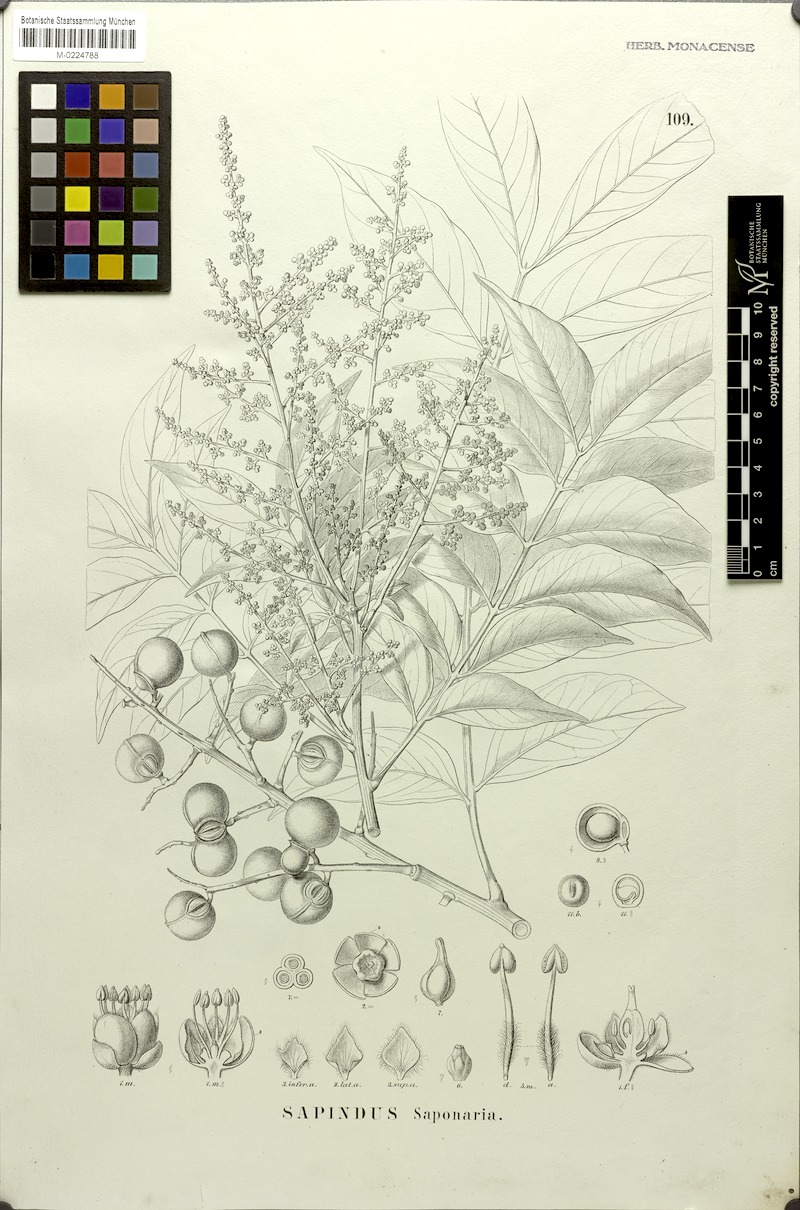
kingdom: Plantae
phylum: Tracheophyta
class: Magnoliopsida
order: Sapindales
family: Sapindaceae
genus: Sapindus
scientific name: Sapindus saponaria
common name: Wingleaf soapberry
